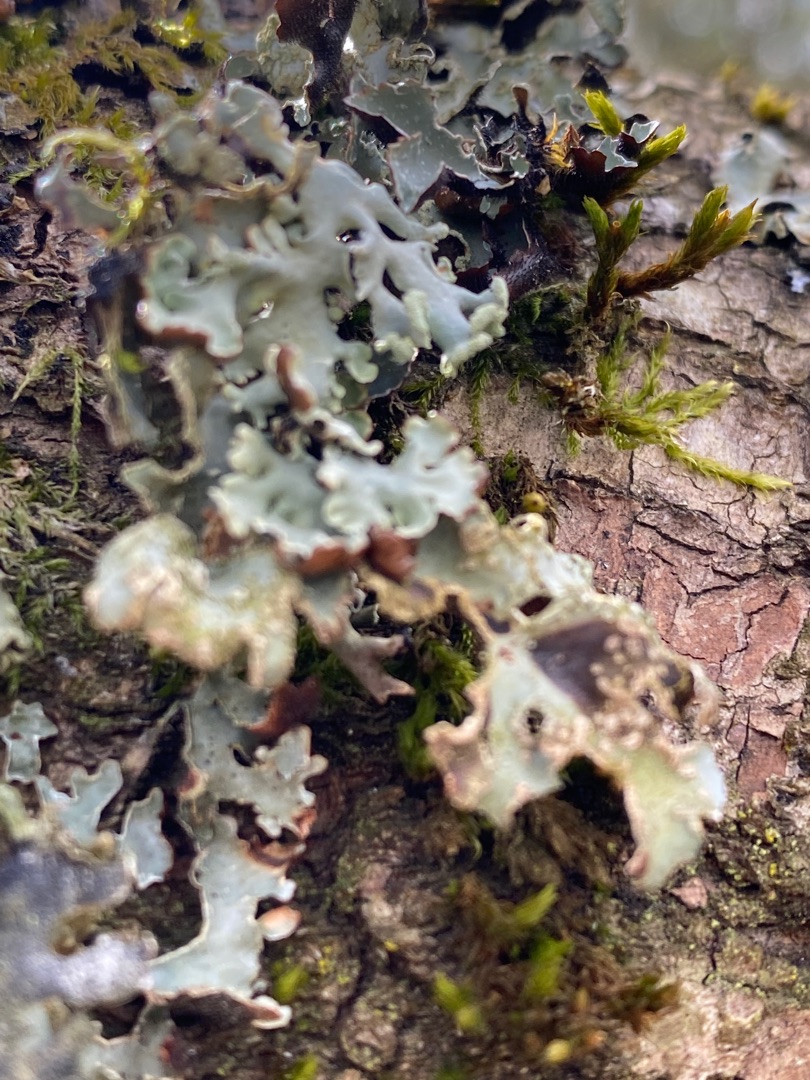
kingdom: Fungi
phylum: Ascomycota
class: Lecanoromycetes
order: Lecanorales
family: Parmeliaceae
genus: Hypogymnia
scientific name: Hypogymnia physodes
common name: Almindelig kvistlav
